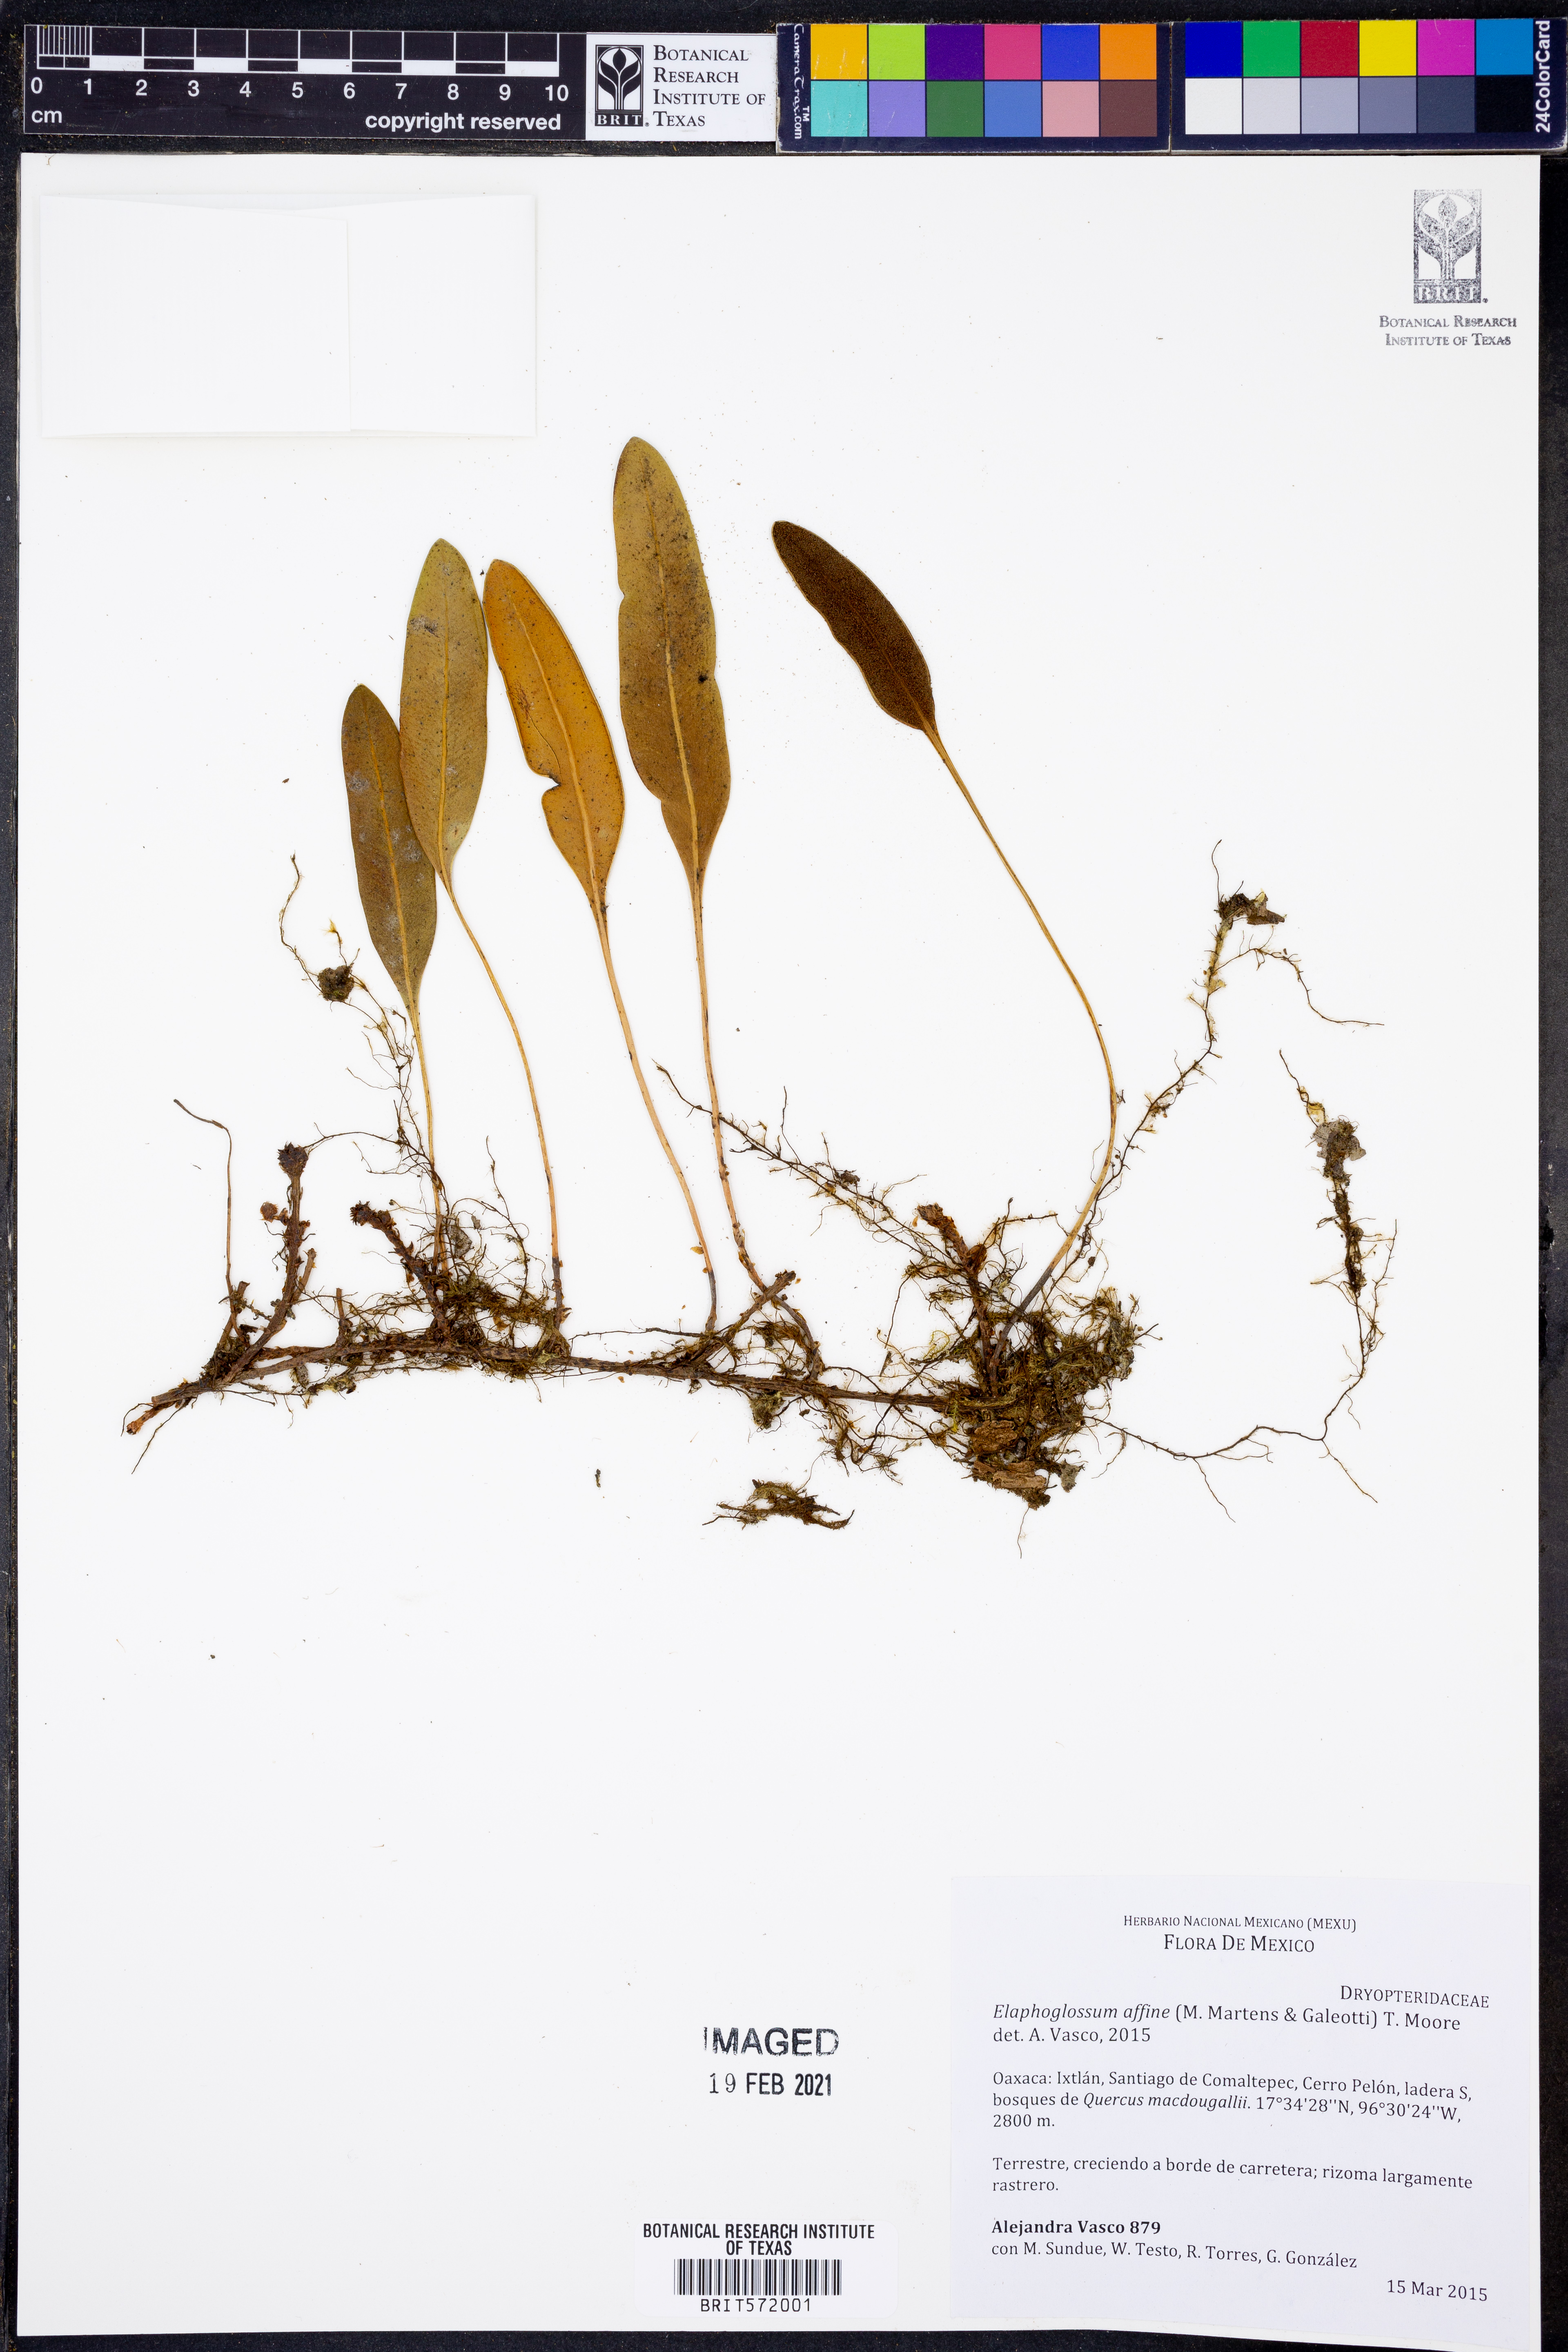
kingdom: Plantae
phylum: Tracheophyta
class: Polypodiopsida
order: Polypodiales
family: Dryopteridaceae
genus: Elaphoglossum
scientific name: Elaphoglossum affine
